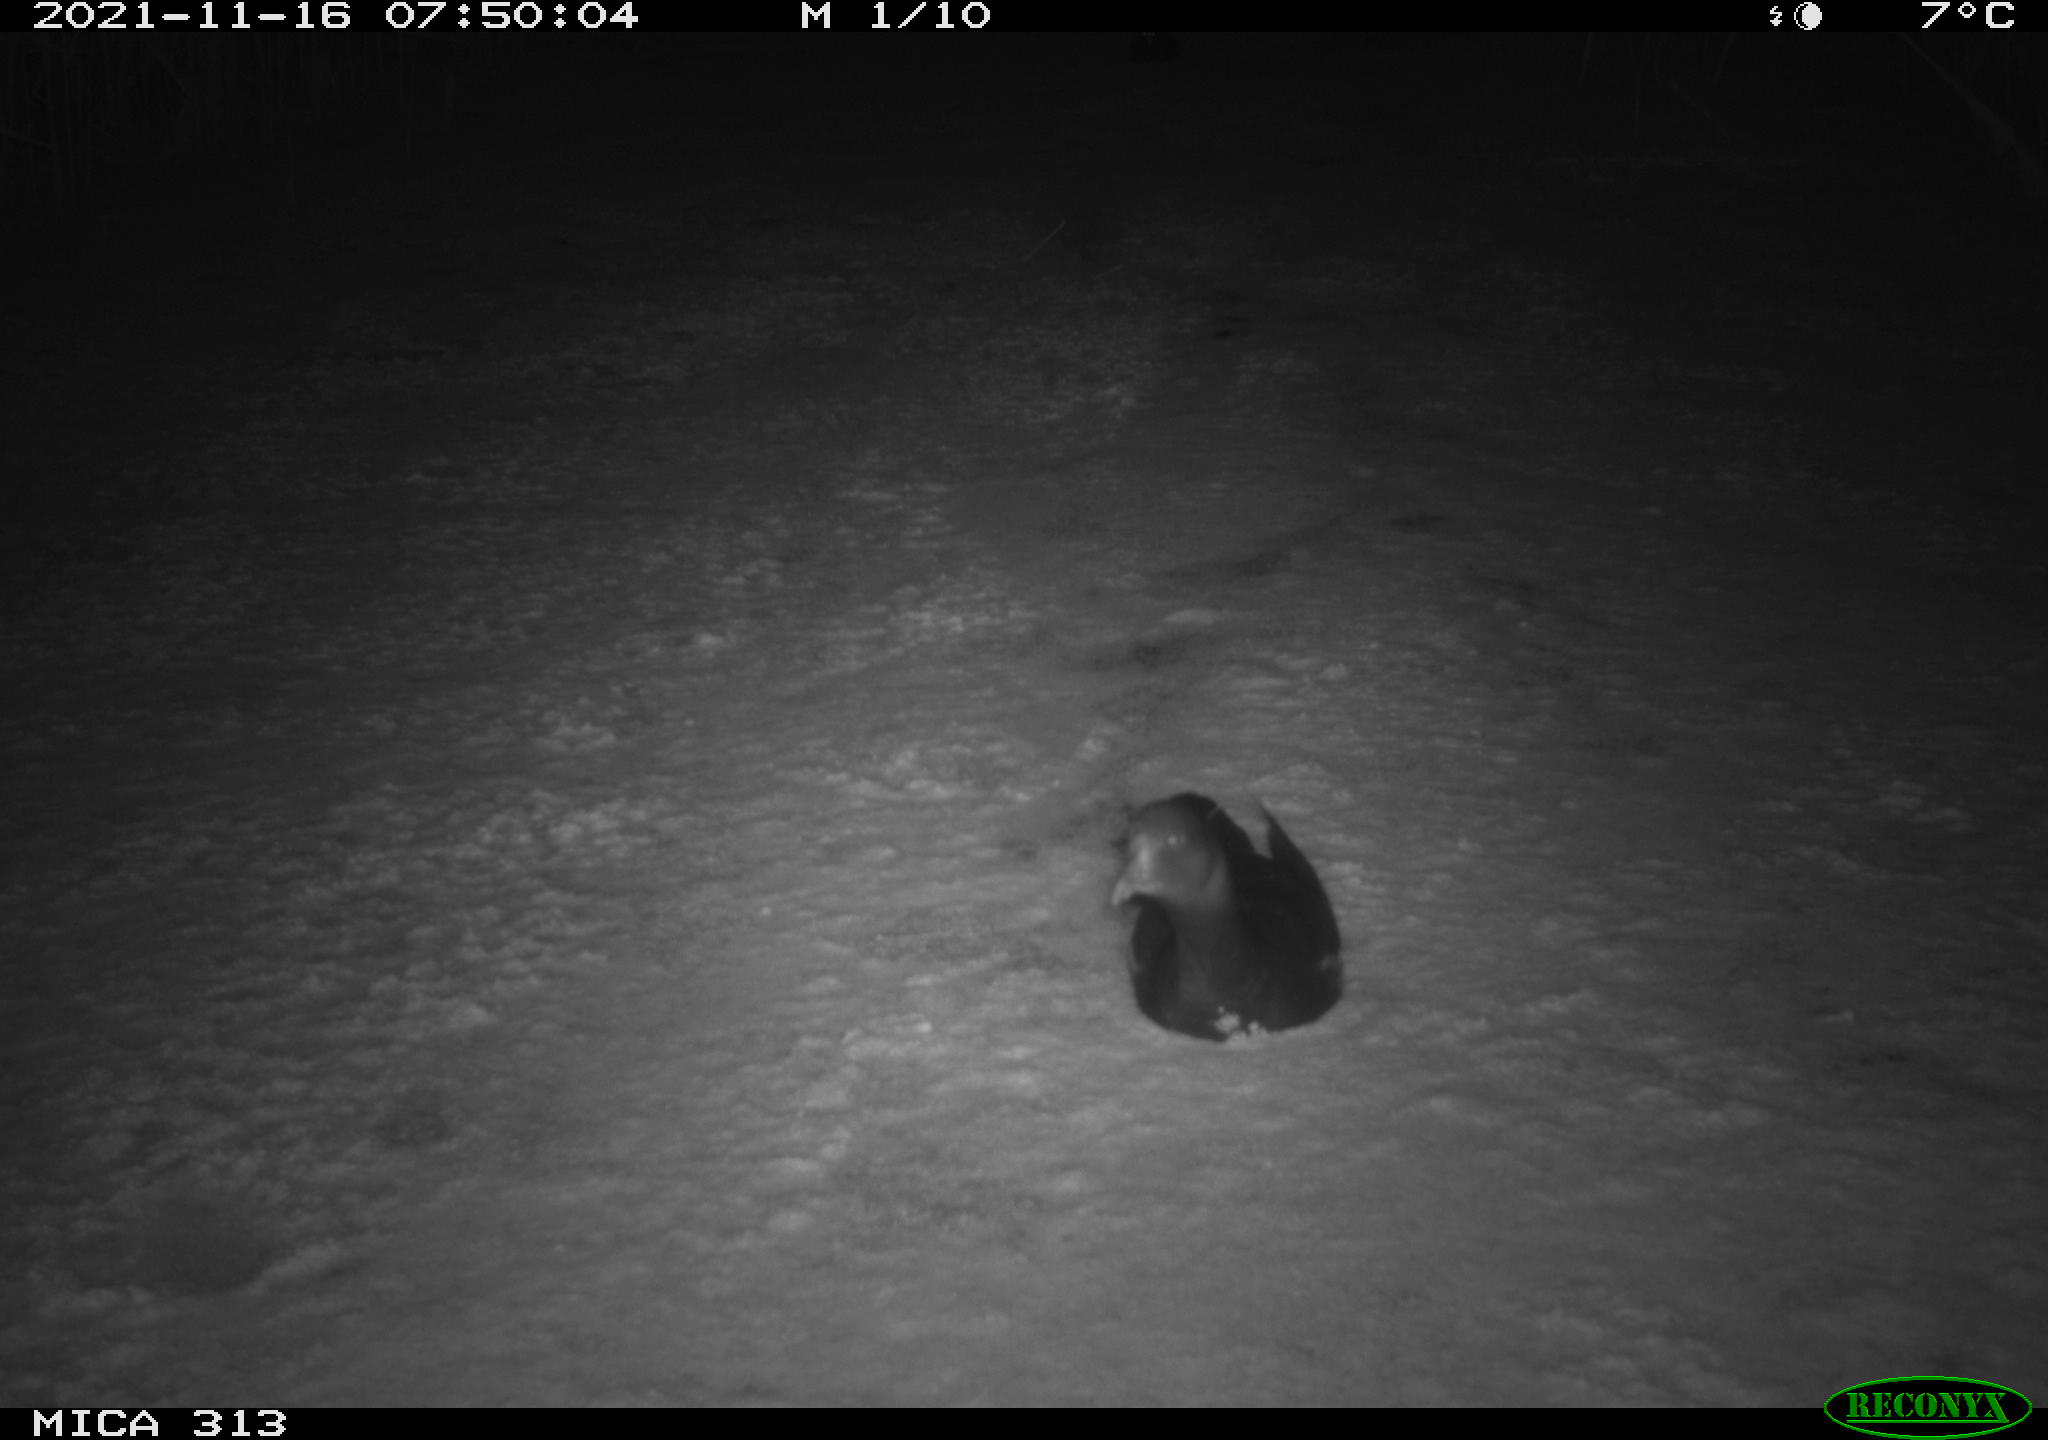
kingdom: Animalia
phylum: Chordata
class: Aves
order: Gruiformes
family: Rallidae
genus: Fulica
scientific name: Fulica atra
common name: Eurasian coot
